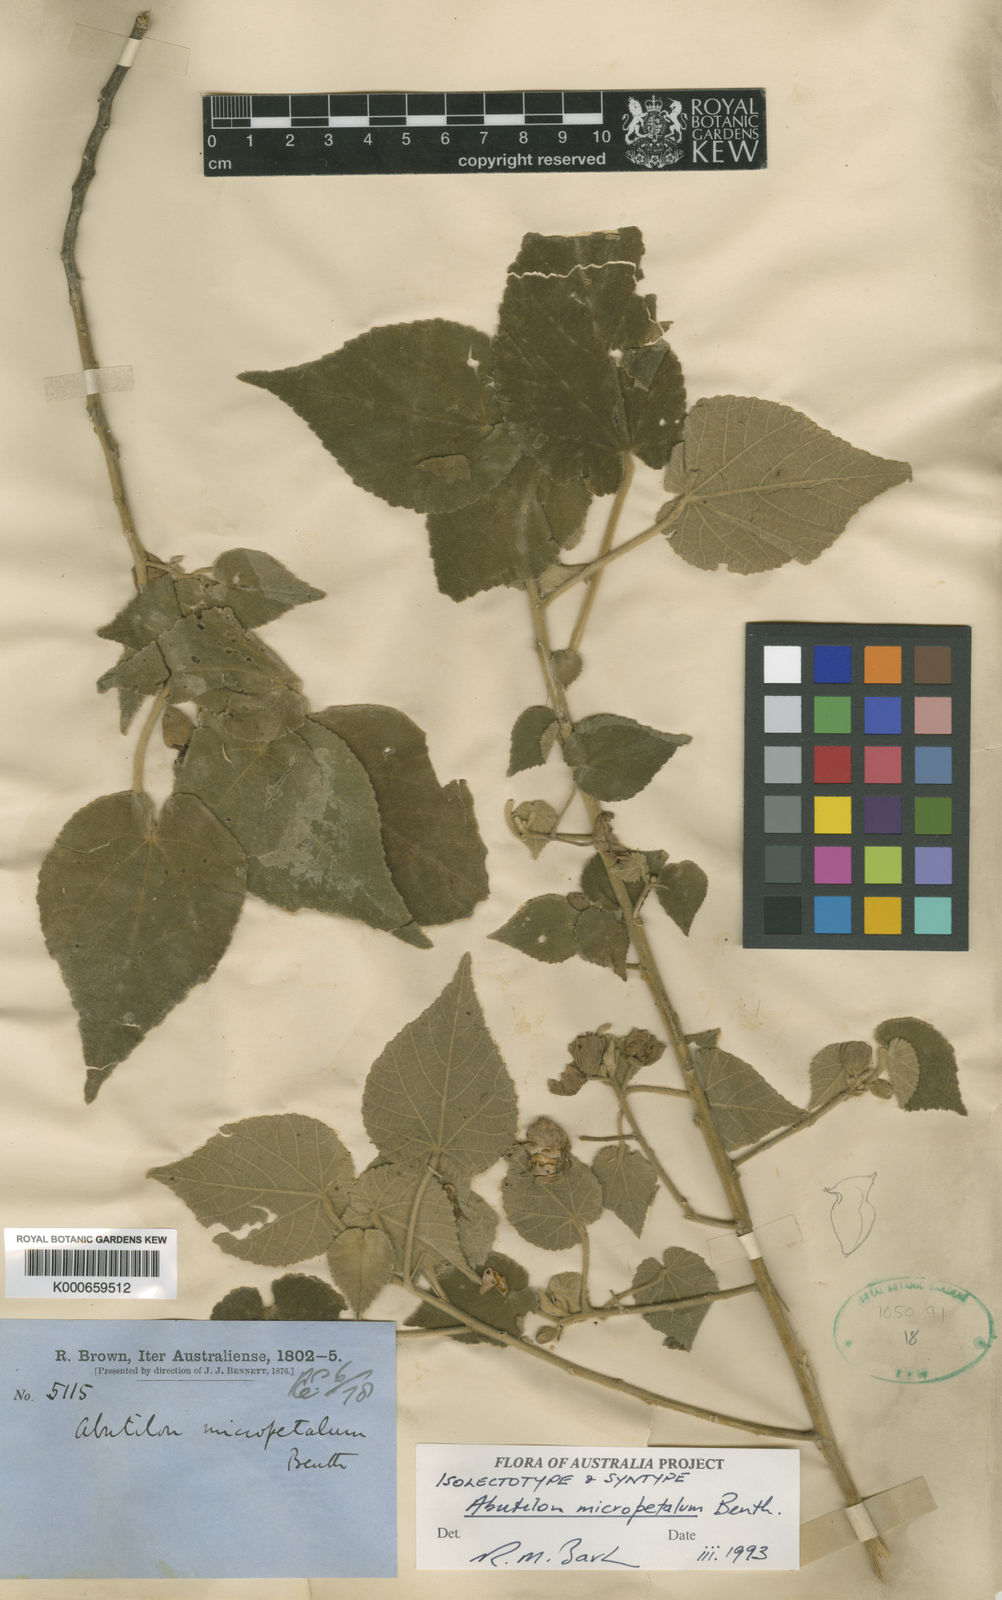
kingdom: Plantae
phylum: Tracheophyta
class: Magnoliopsida
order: Malvales
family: Malvaceae
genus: Abutilon
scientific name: Abutilon micropetalum
